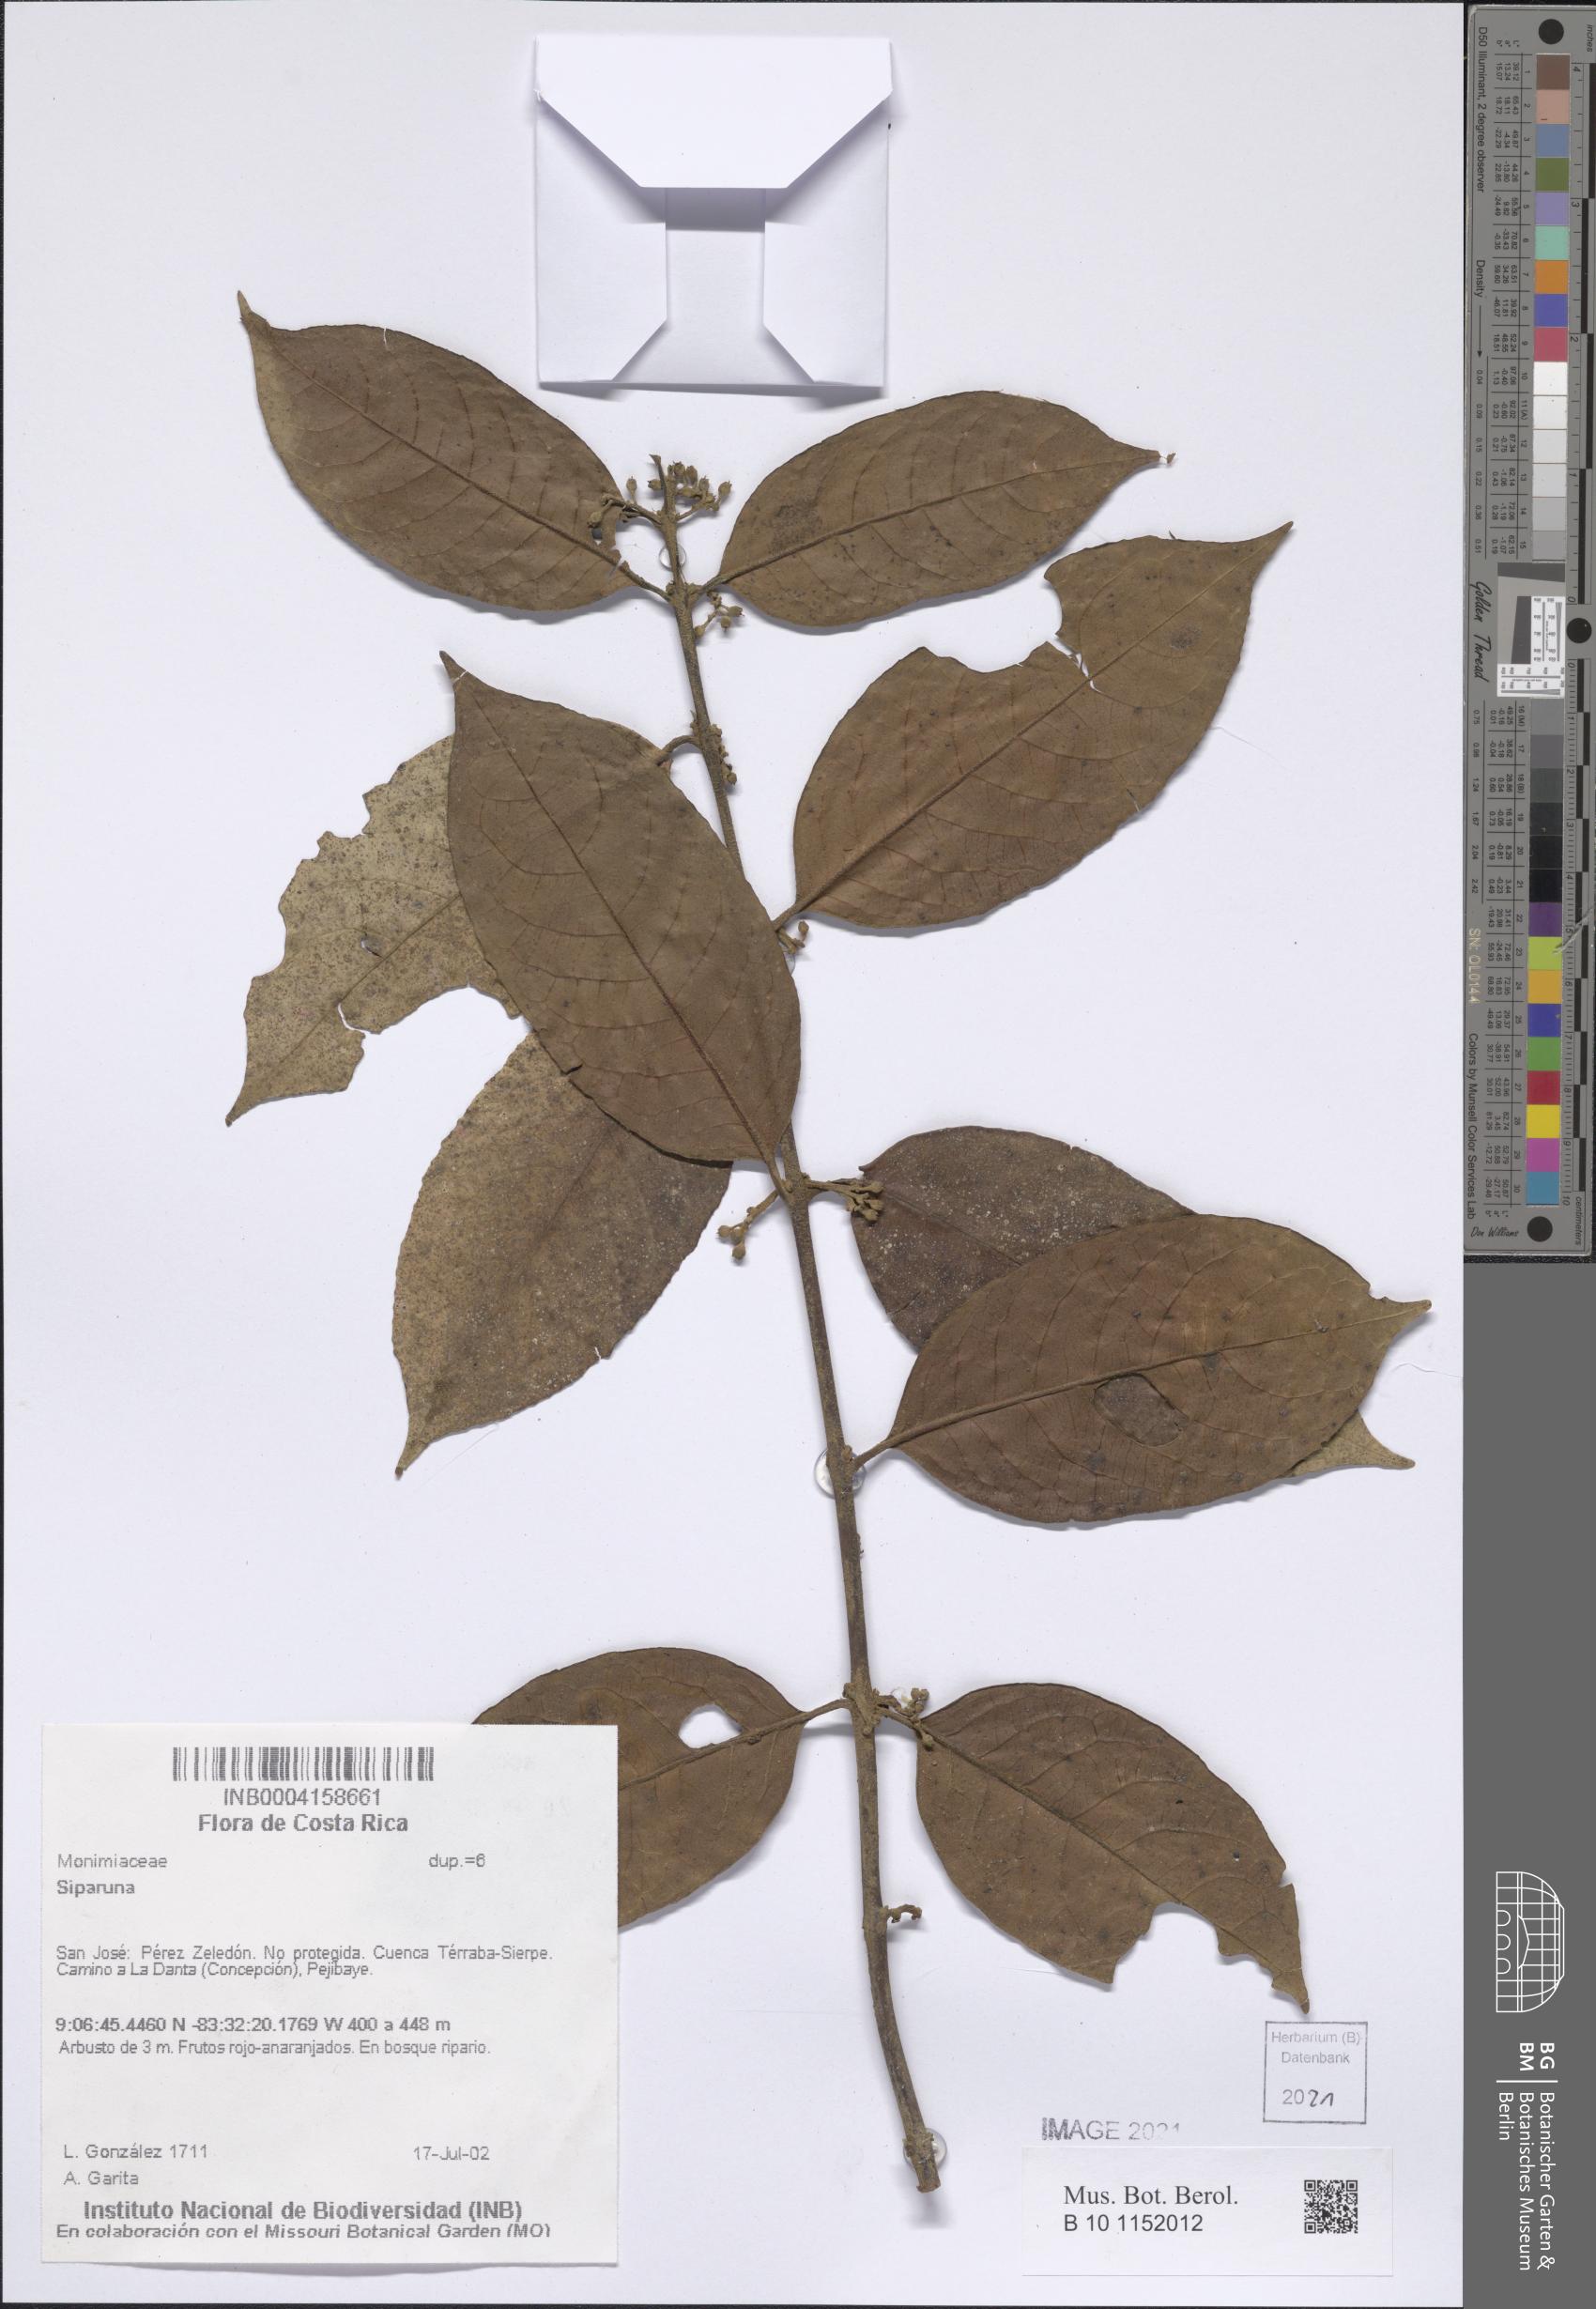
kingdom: Plantae
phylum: Tracheophyta
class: Magnoliopsida
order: Laurales
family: Siparunaceae
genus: Siparuna
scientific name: Siparuna
